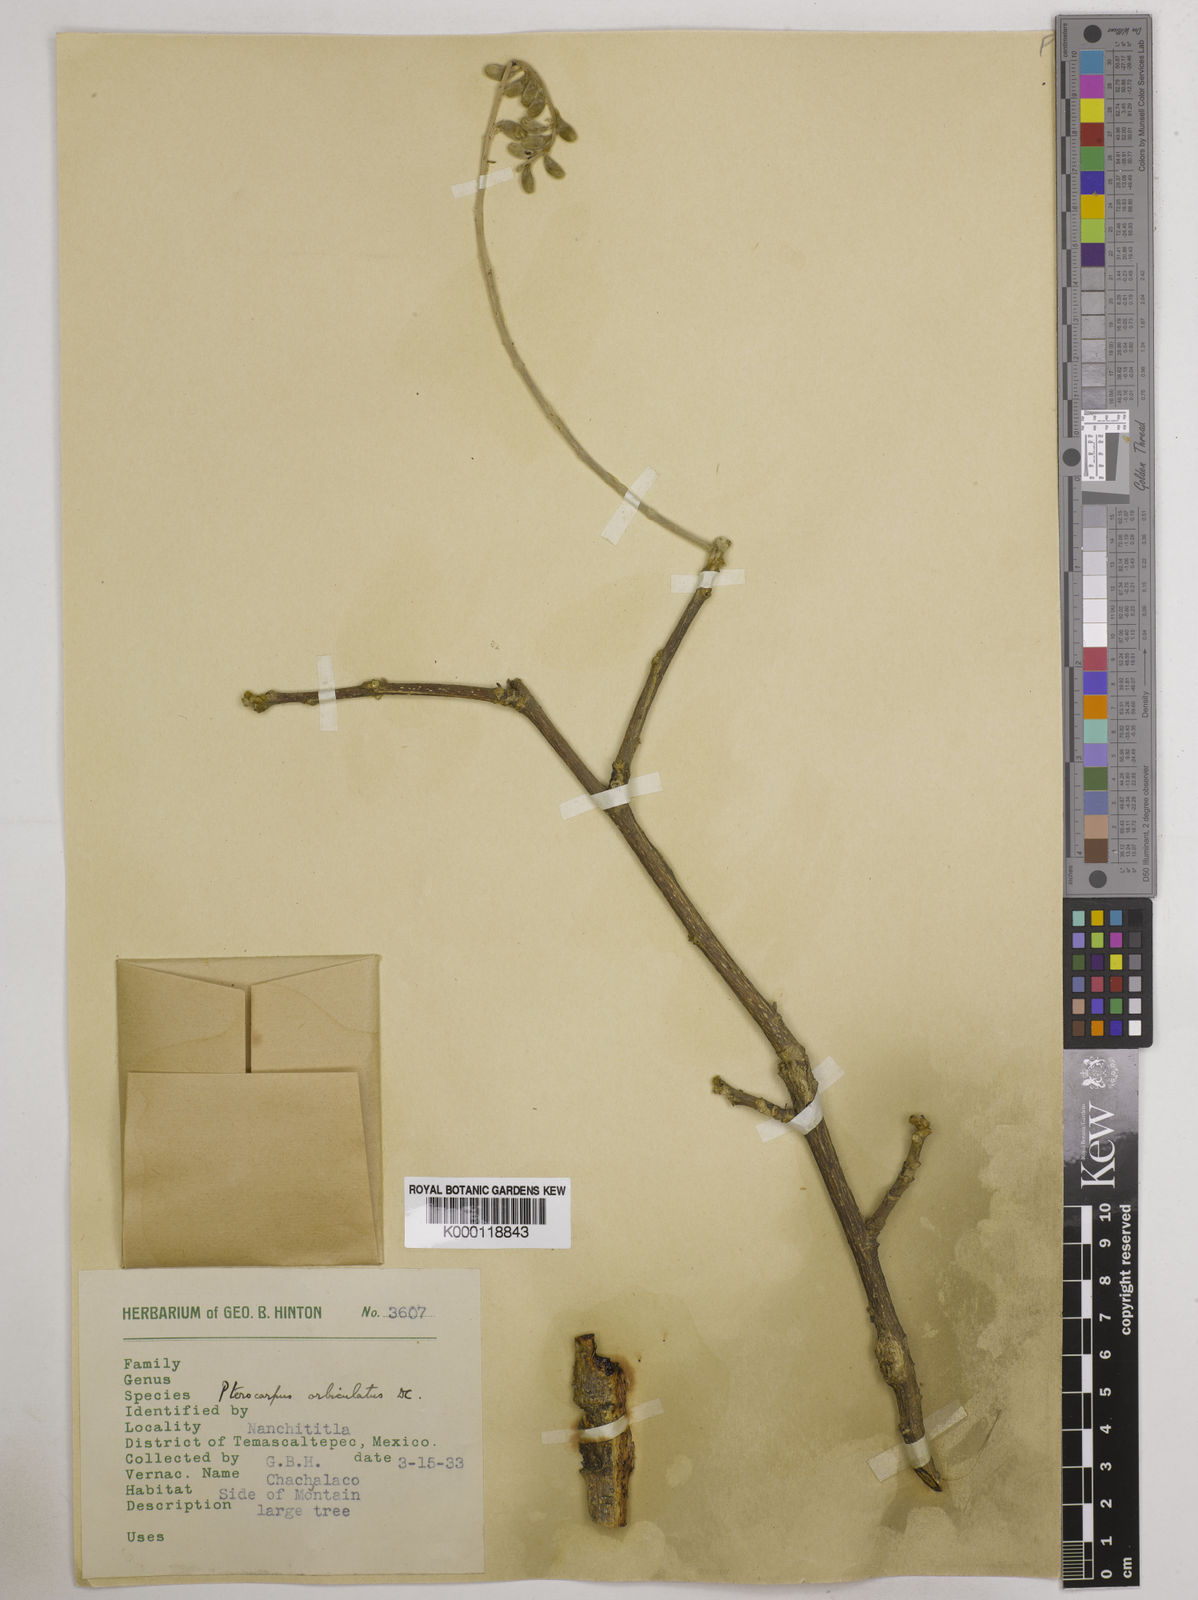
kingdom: Plantae
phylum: Tracheophyta
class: Magnoliopsida
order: Fabales
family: Fabaceae
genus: Pterocarpus
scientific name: Pterocarpus orbiculatus
